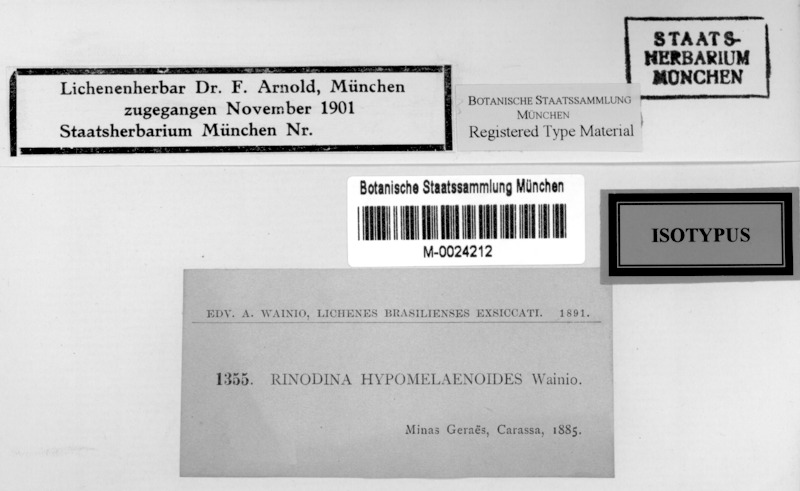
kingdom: Fungi
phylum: Ascomycota
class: Lecanoromycetes
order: Caliciales
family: Physciaceae
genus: Rinodina
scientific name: Rinodina
